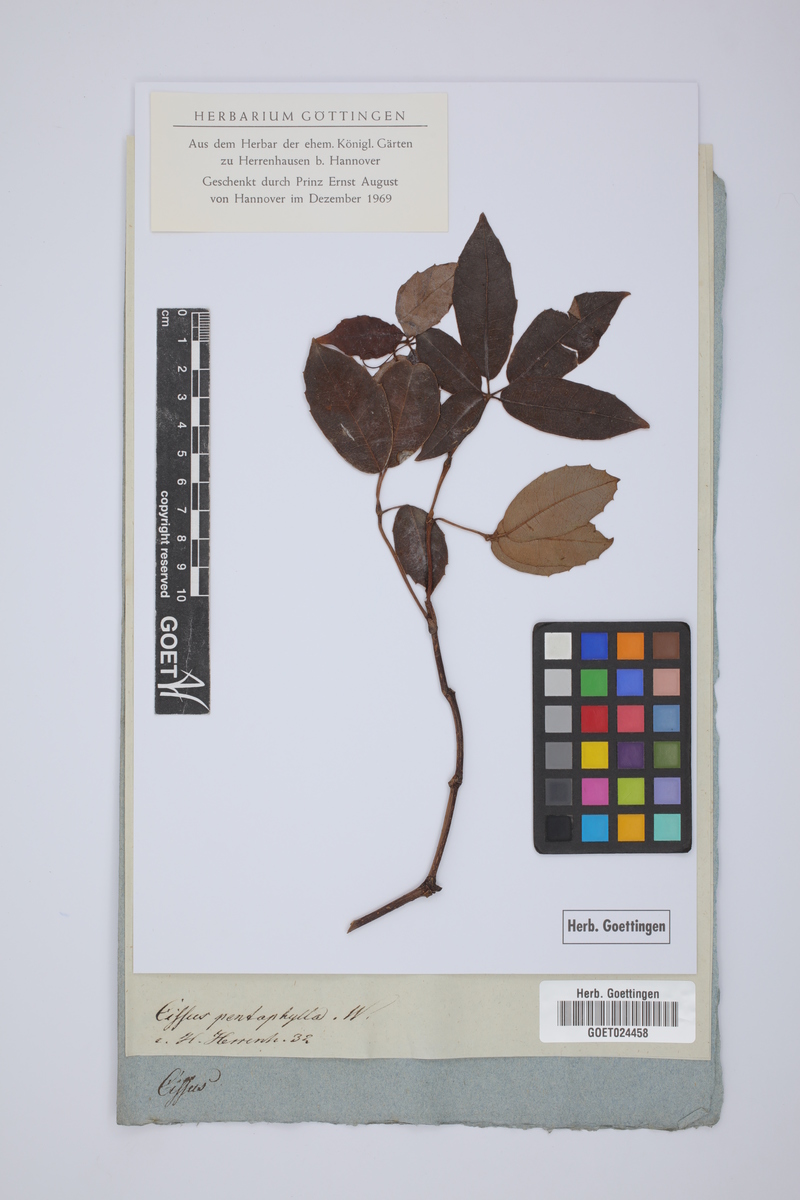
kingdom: Plantae
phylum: Tracheophyta
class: Magnoliopsida
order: Vitales
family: Vitaceae
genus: Cissus
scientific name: Cissus elongata
